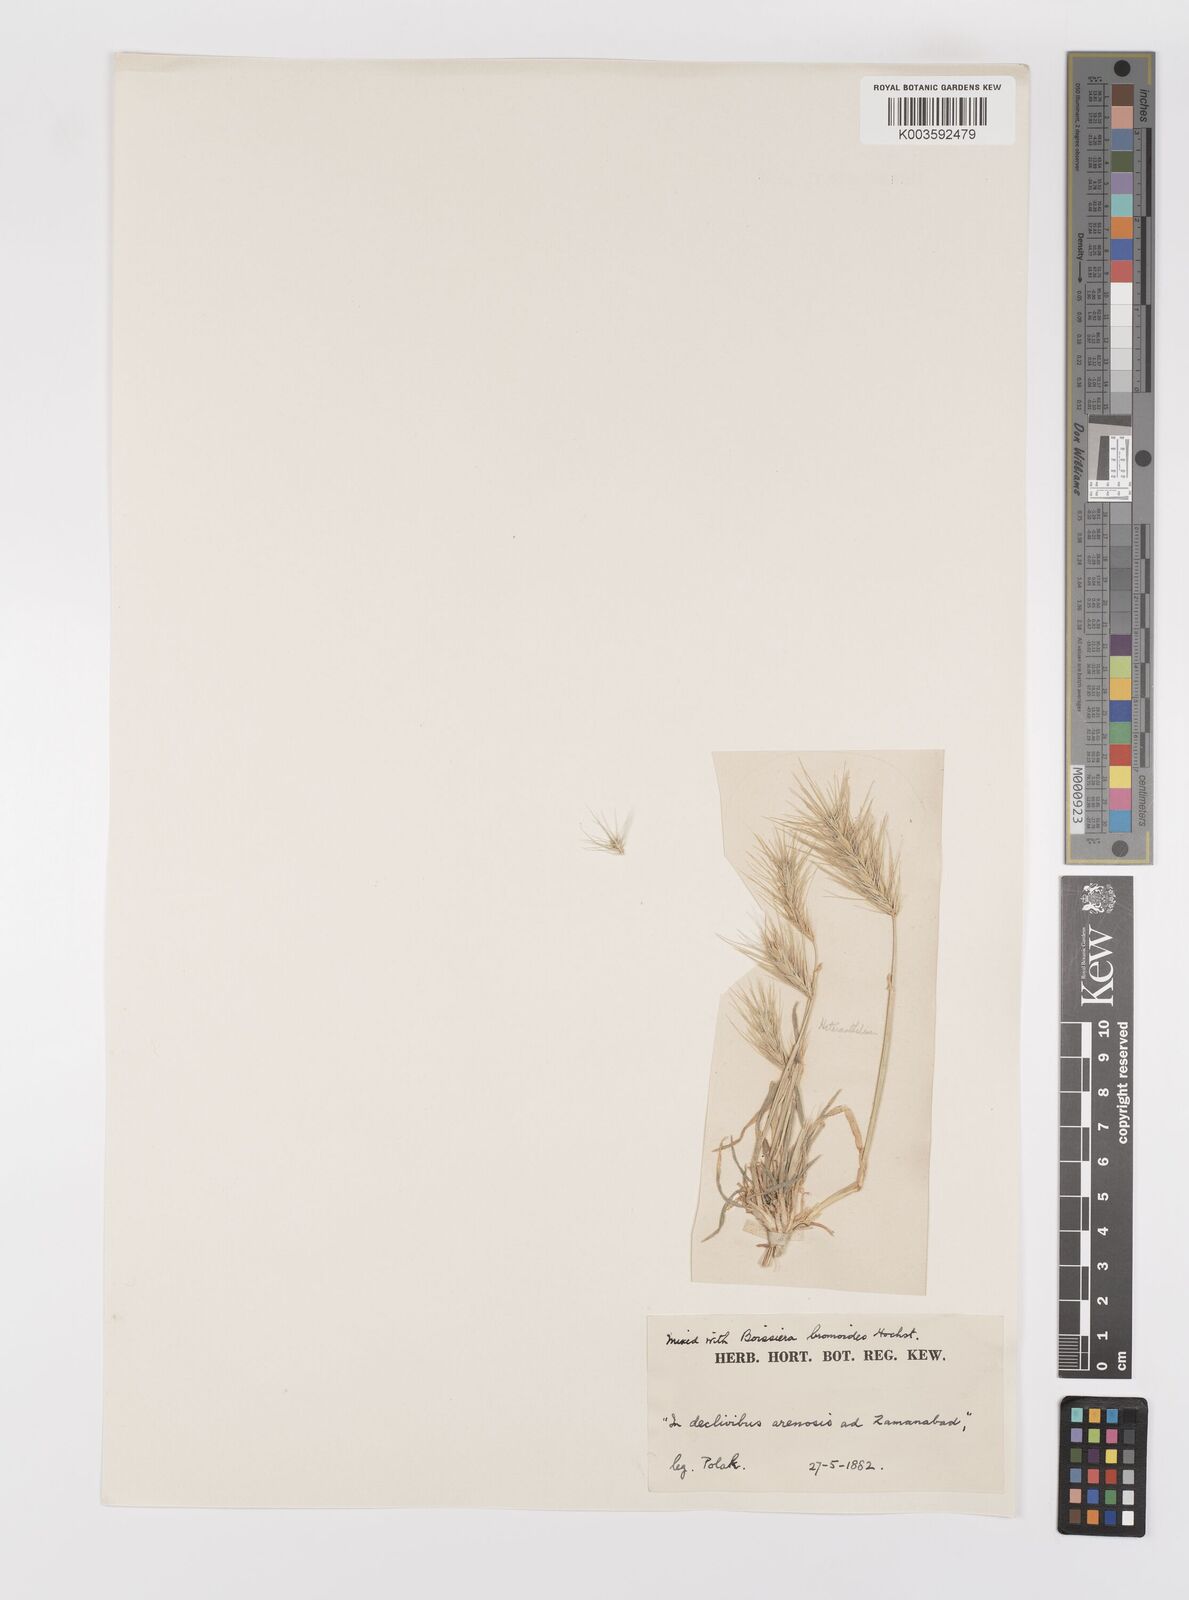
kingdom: Plantae
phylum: Tracheophyta
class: Liliopsida
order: Poales
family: Poaceae
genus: Heteranthelium
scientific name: Heteranthelium piliferum
